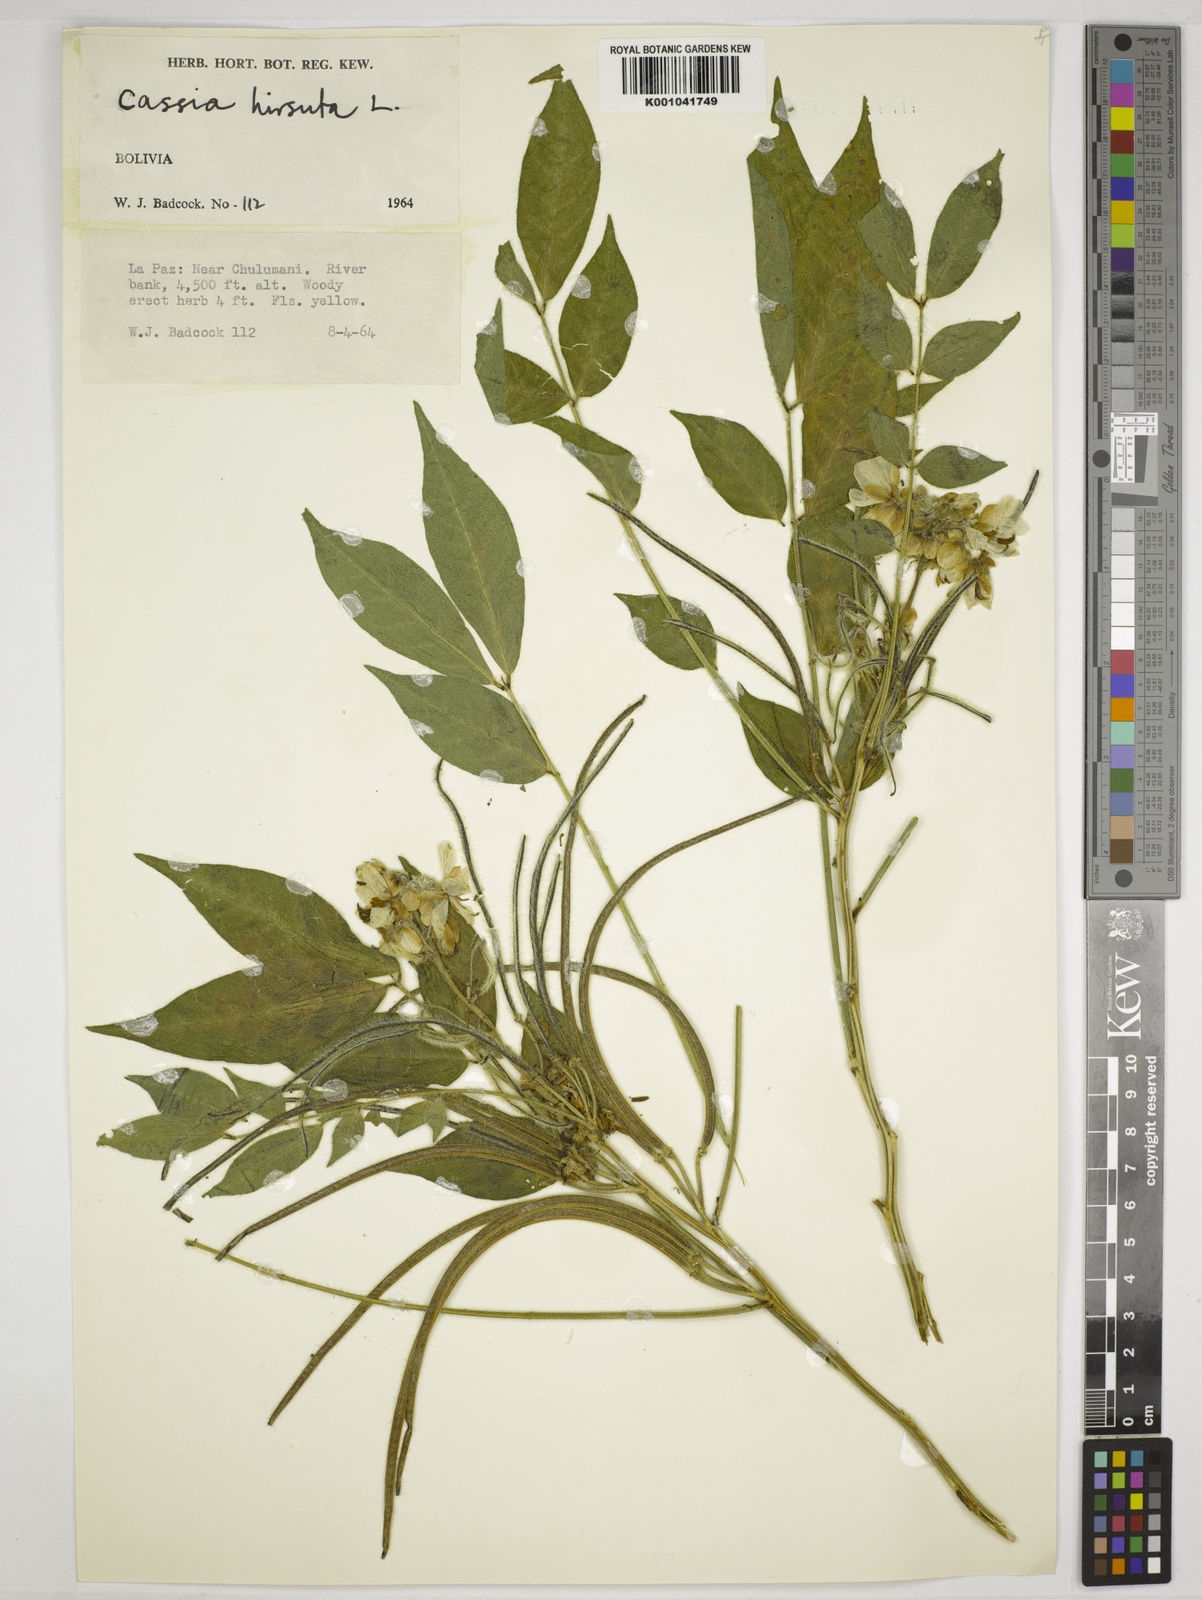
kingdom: Plantae
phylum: Tracheophyta
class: Magnoliopsida
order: Fabales
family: Fabaceae
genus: Senna
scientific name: Senna hirsuta
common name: Woolly senna
